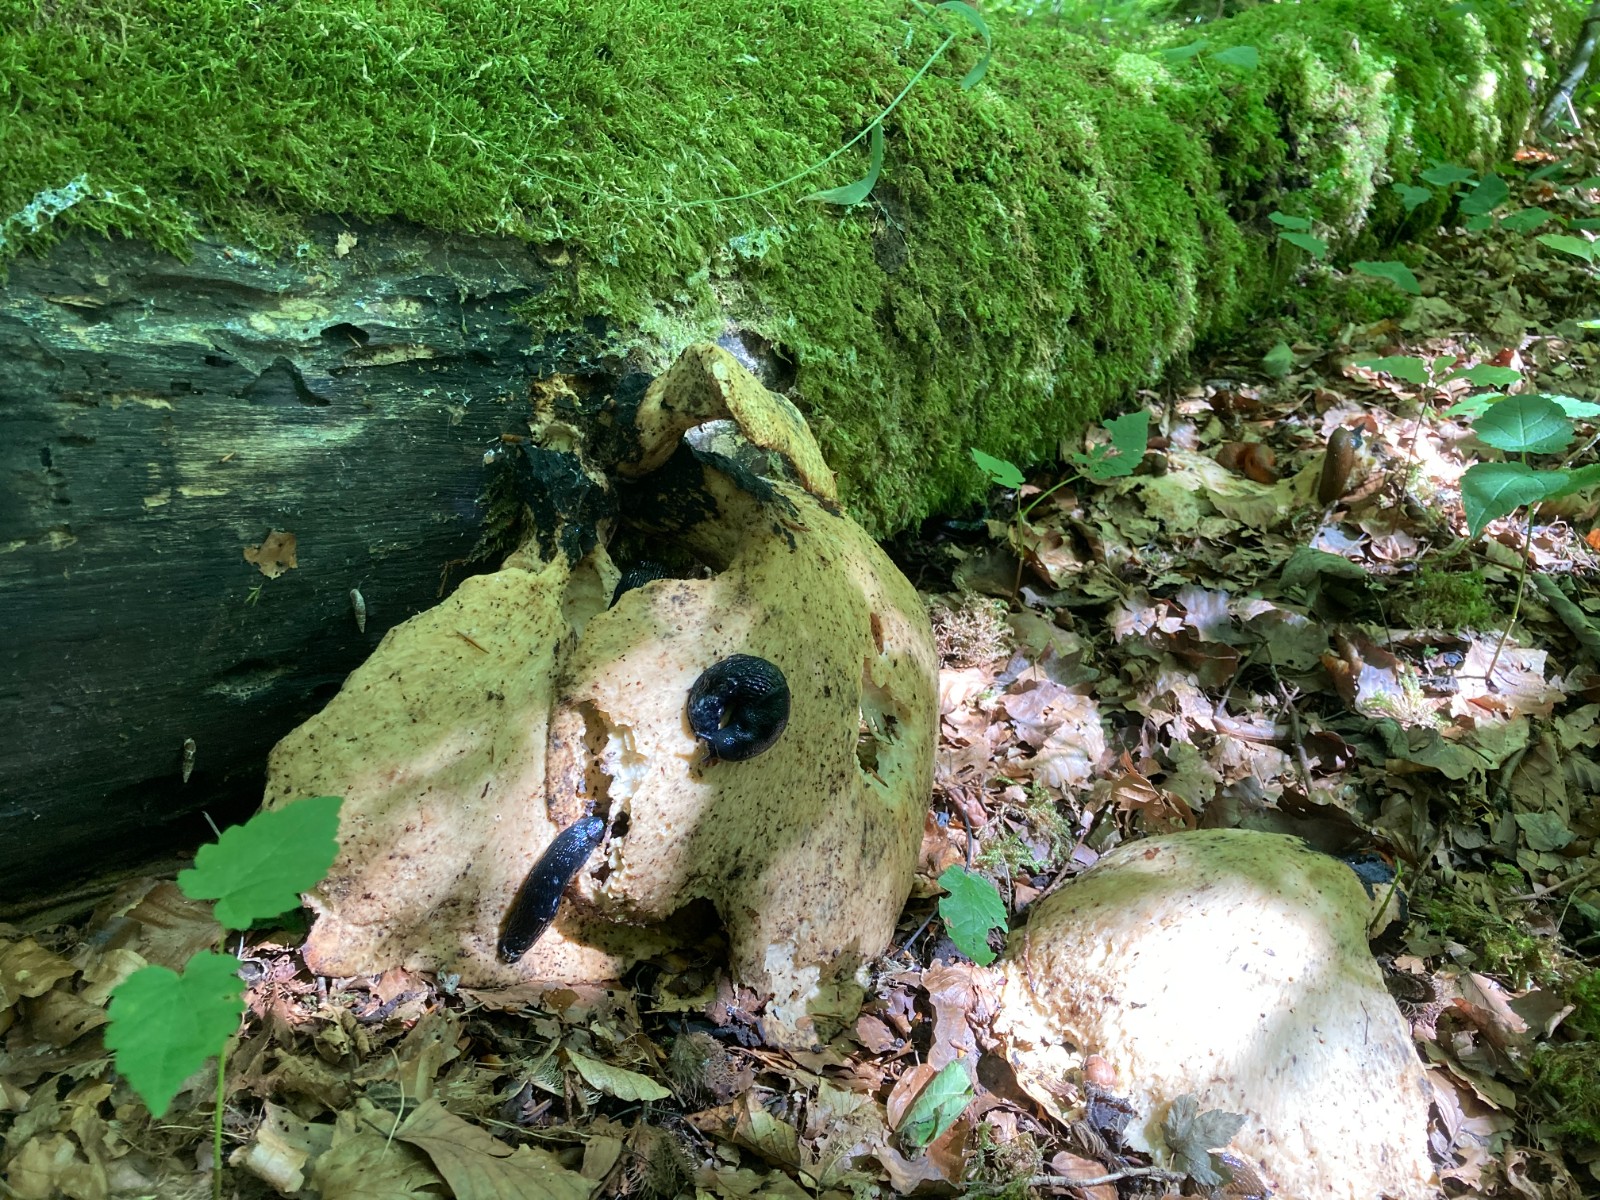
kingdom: Fungi
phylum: Basidiomycota
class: Agaricomycetes
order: Polyporales
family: Polyporaceae
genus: Cerioporus
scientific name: Cerioporus squamosus
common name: skællet stilkporesvamp
